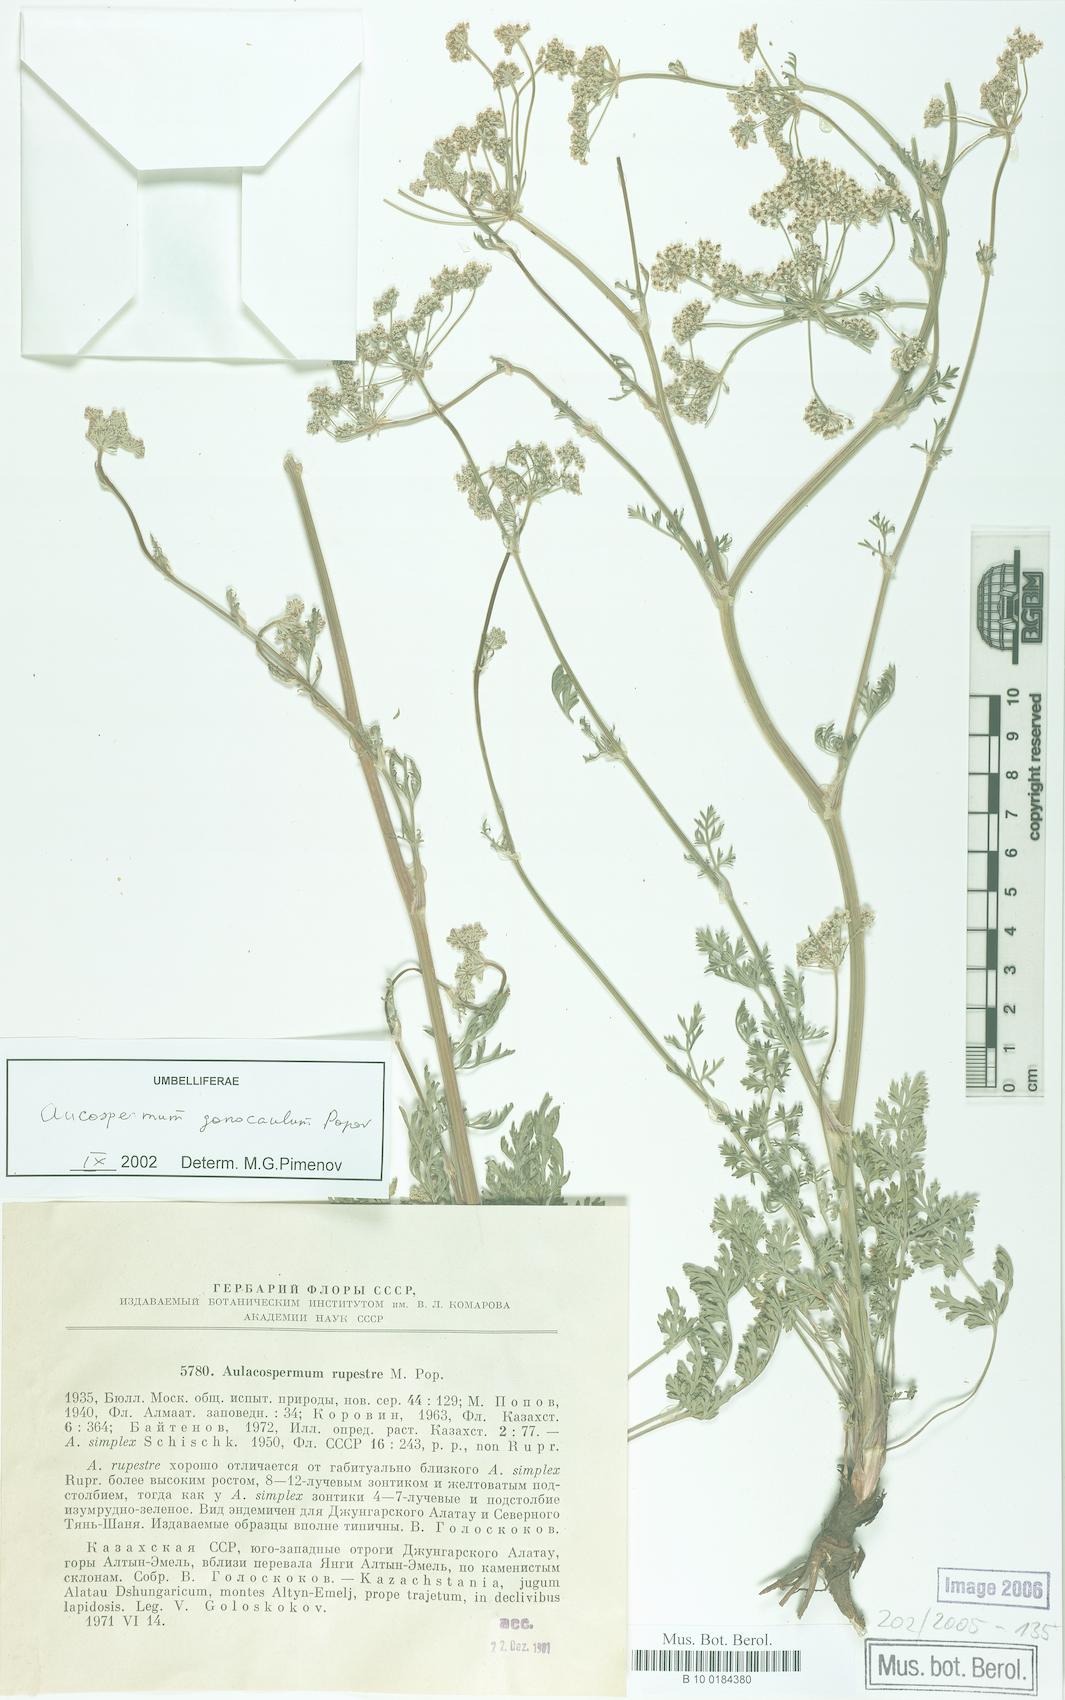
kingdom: Plantae
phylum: Tracheophyta
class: Magnoliopsida
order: Apiales
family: Apiaceae
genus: Aulacospermum
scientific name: Aulacospermum gonocaulum
